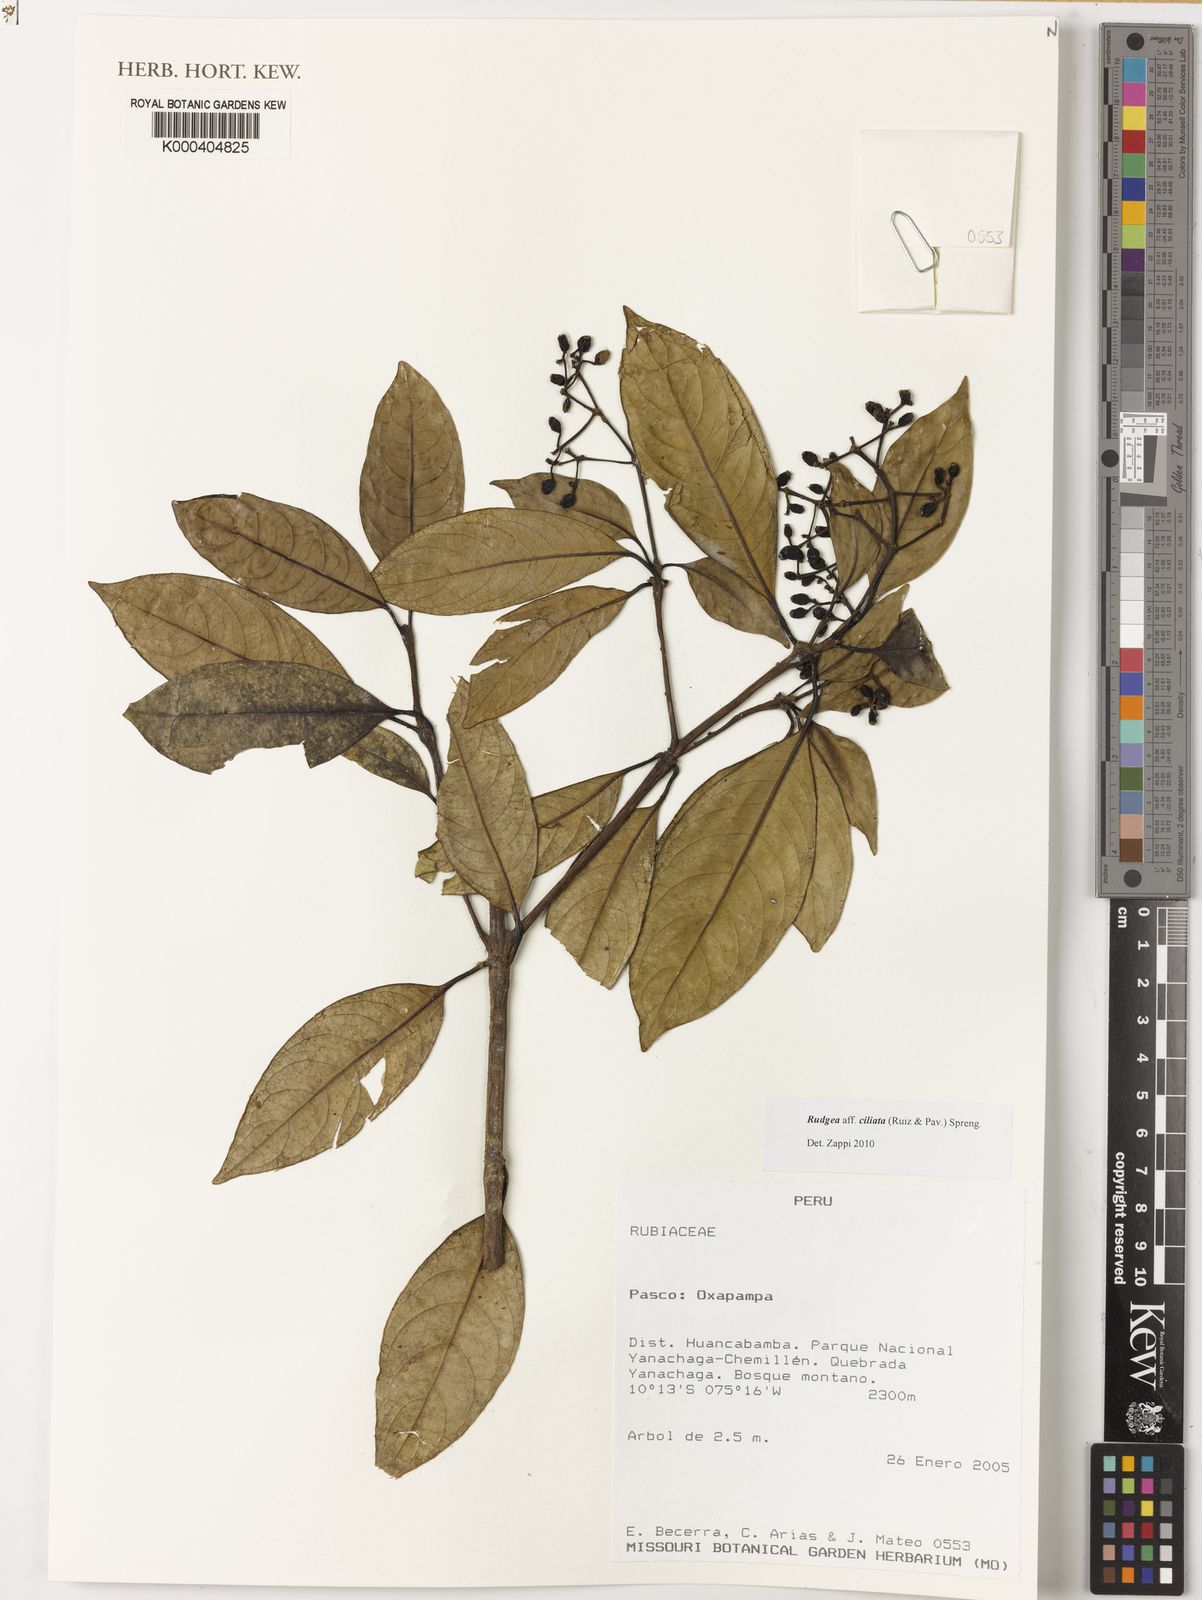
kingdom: Plantae
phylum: Tracheophyta
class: Magnoliopsida
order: Gentianales
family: Rubiaceae
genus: Rudgea
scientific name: Rudgea ciliata
